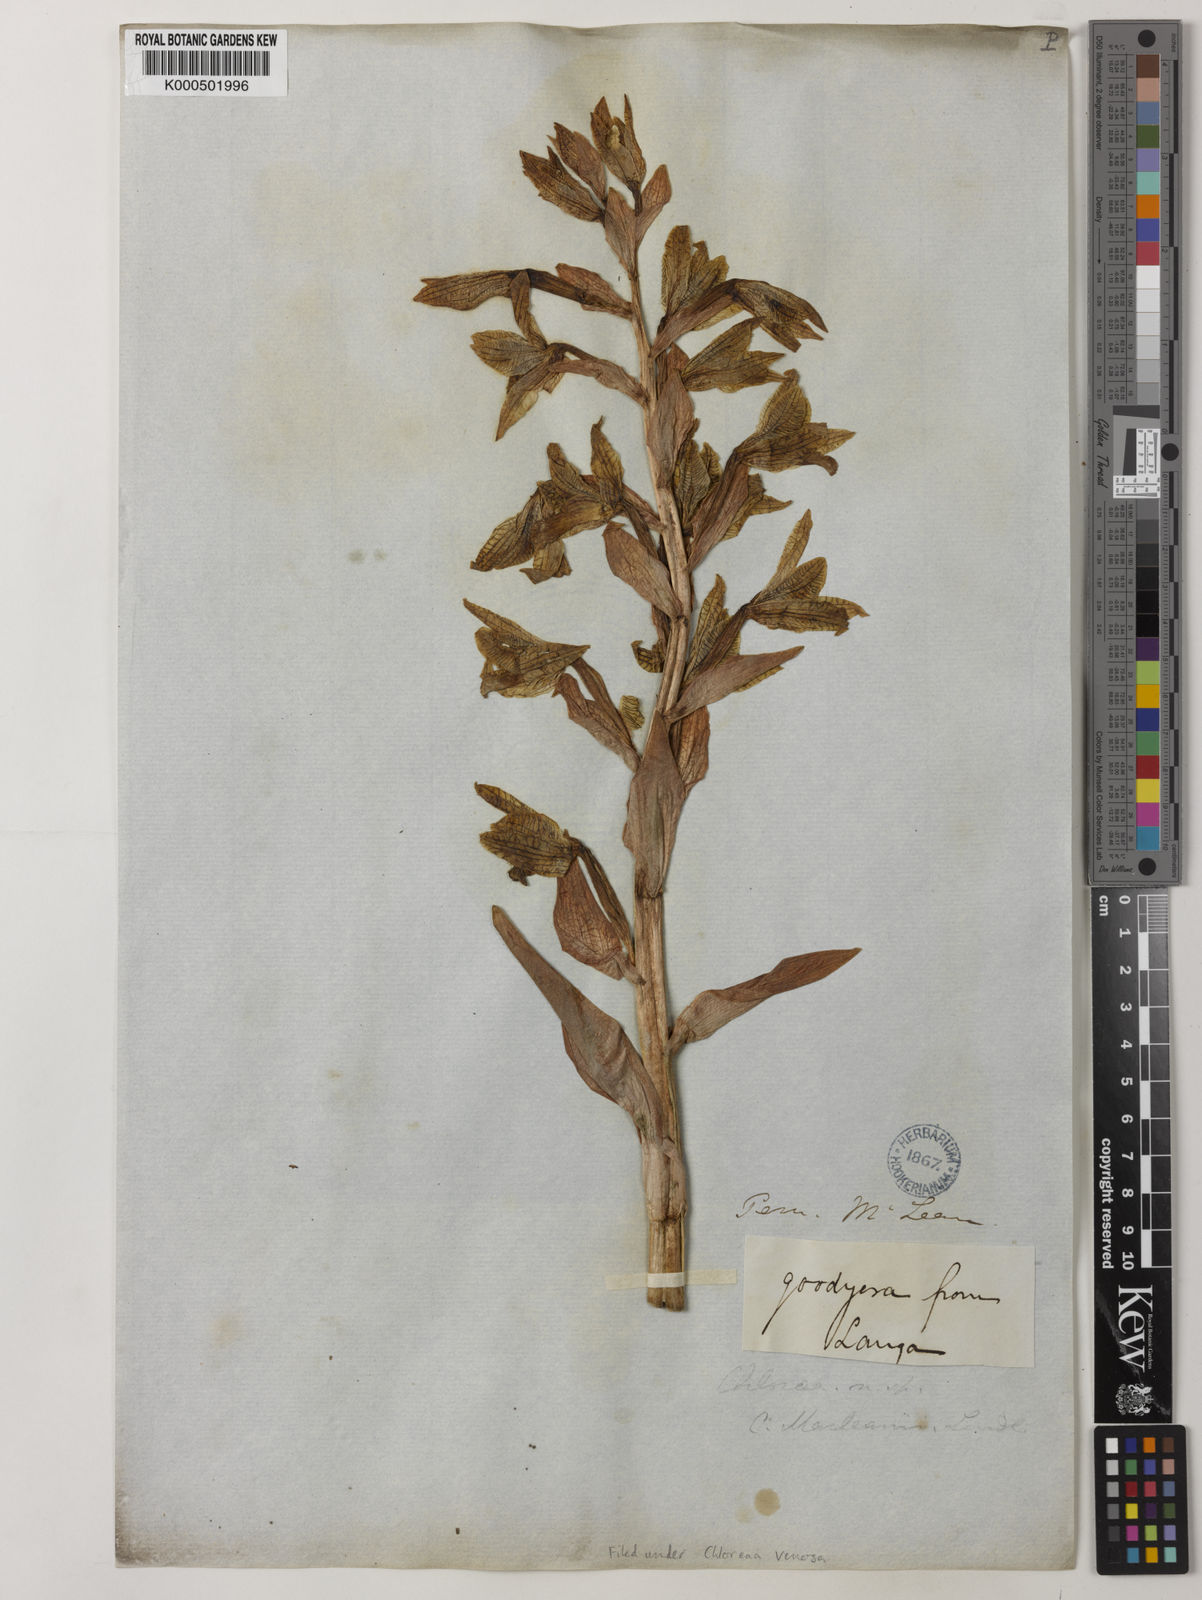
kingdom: Plantae
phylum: Tracheophyta
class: Liliopsida
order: Asparagales
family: Orchidaceae
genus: Chloraea
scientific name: Chloraea venosa
